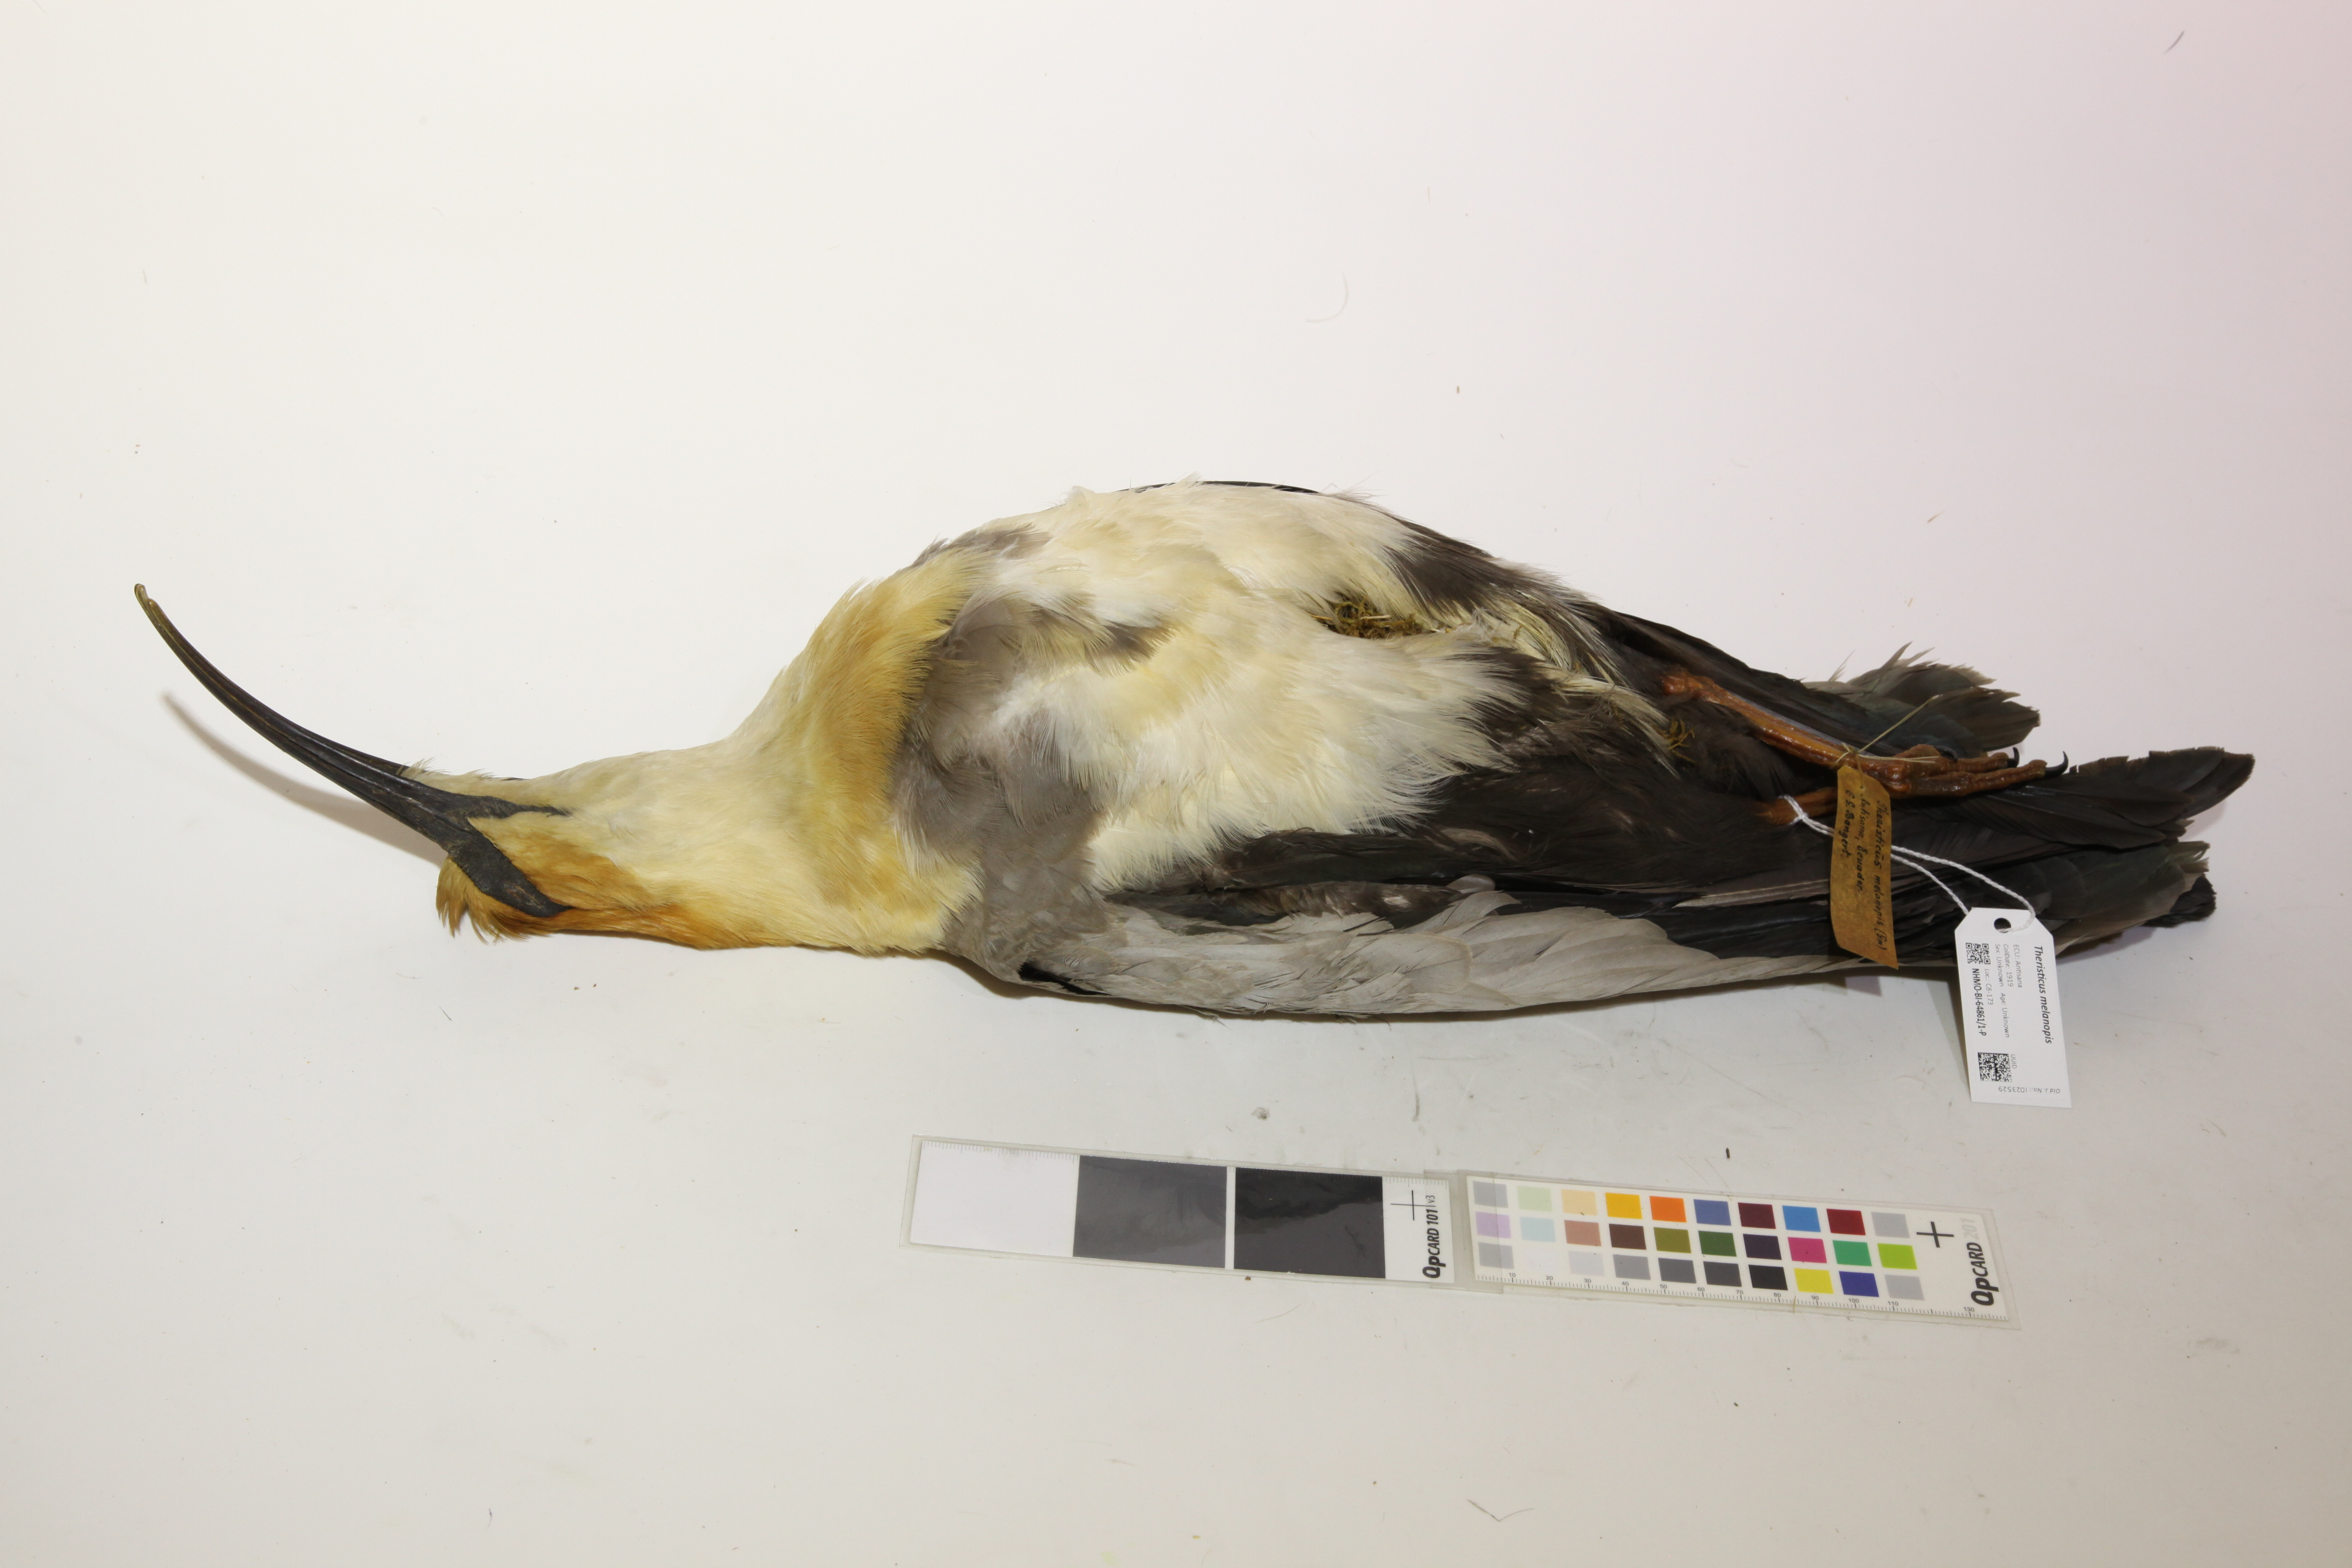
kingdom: Animalia
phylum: Chordata
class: Aves
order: Pelecaniformes
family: Threskiornithidae
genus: Theristicus
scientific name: Theristicus melanopis
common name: Black-faced ibis
